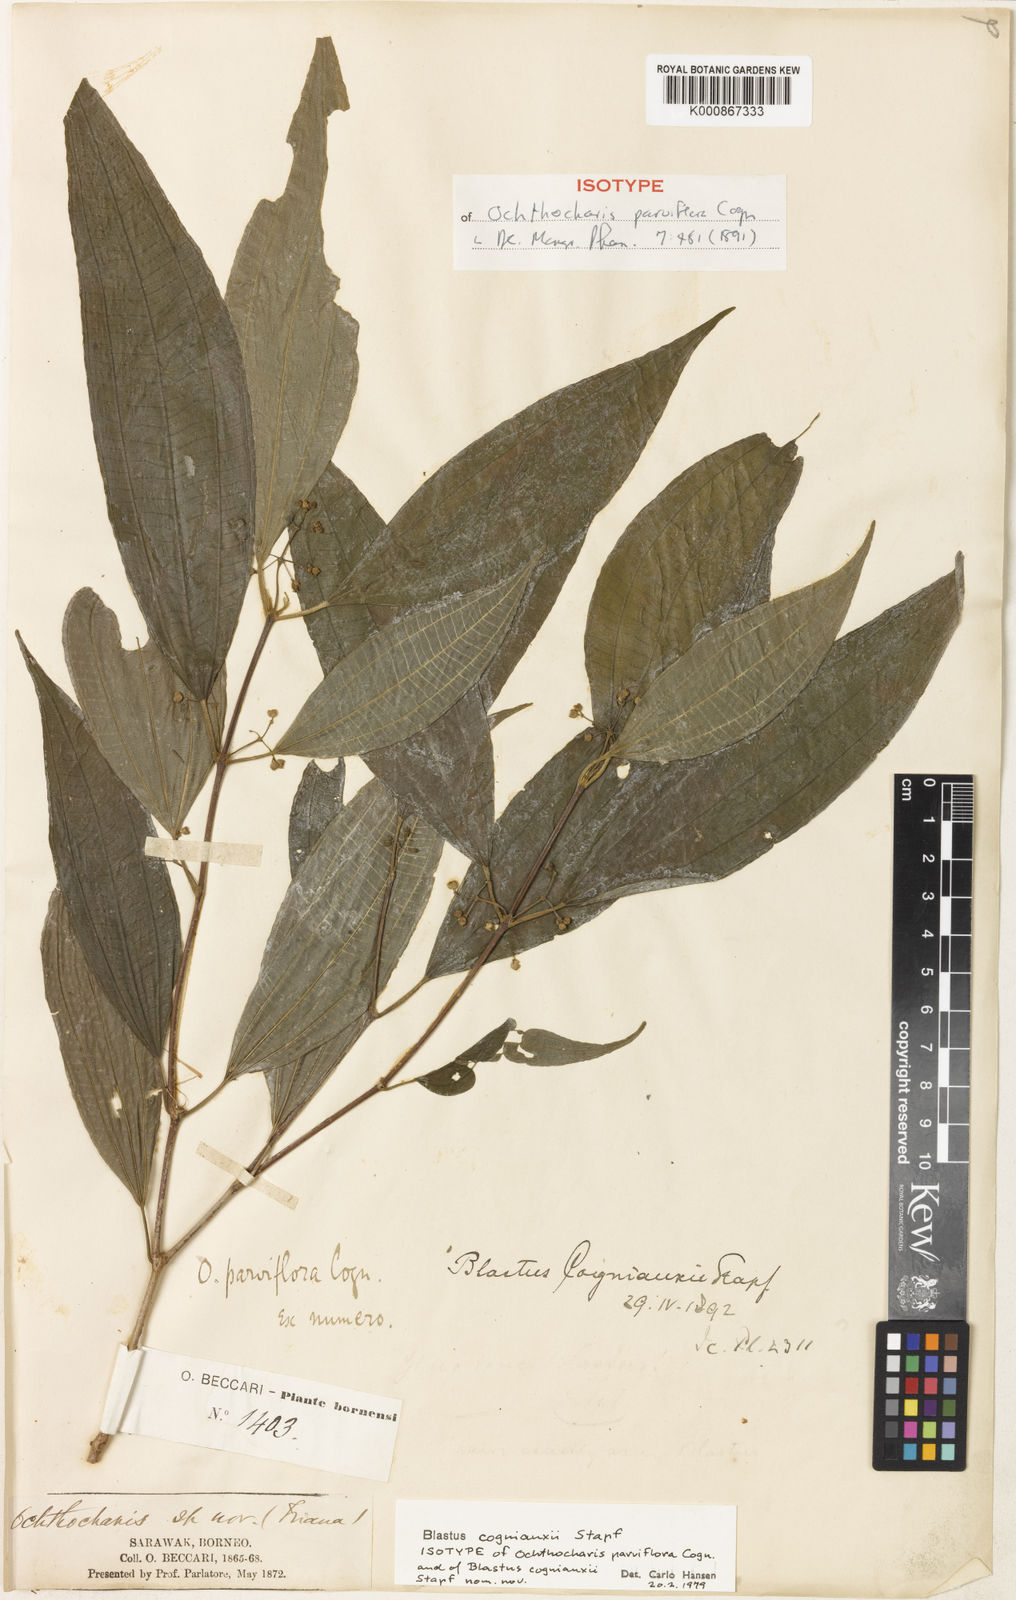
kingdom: Plantae
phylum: Tracheophyta
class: Magnoliopsida
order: Myrtales
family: Melastomataceae
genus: Blastus
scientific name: Blastus borneensis
